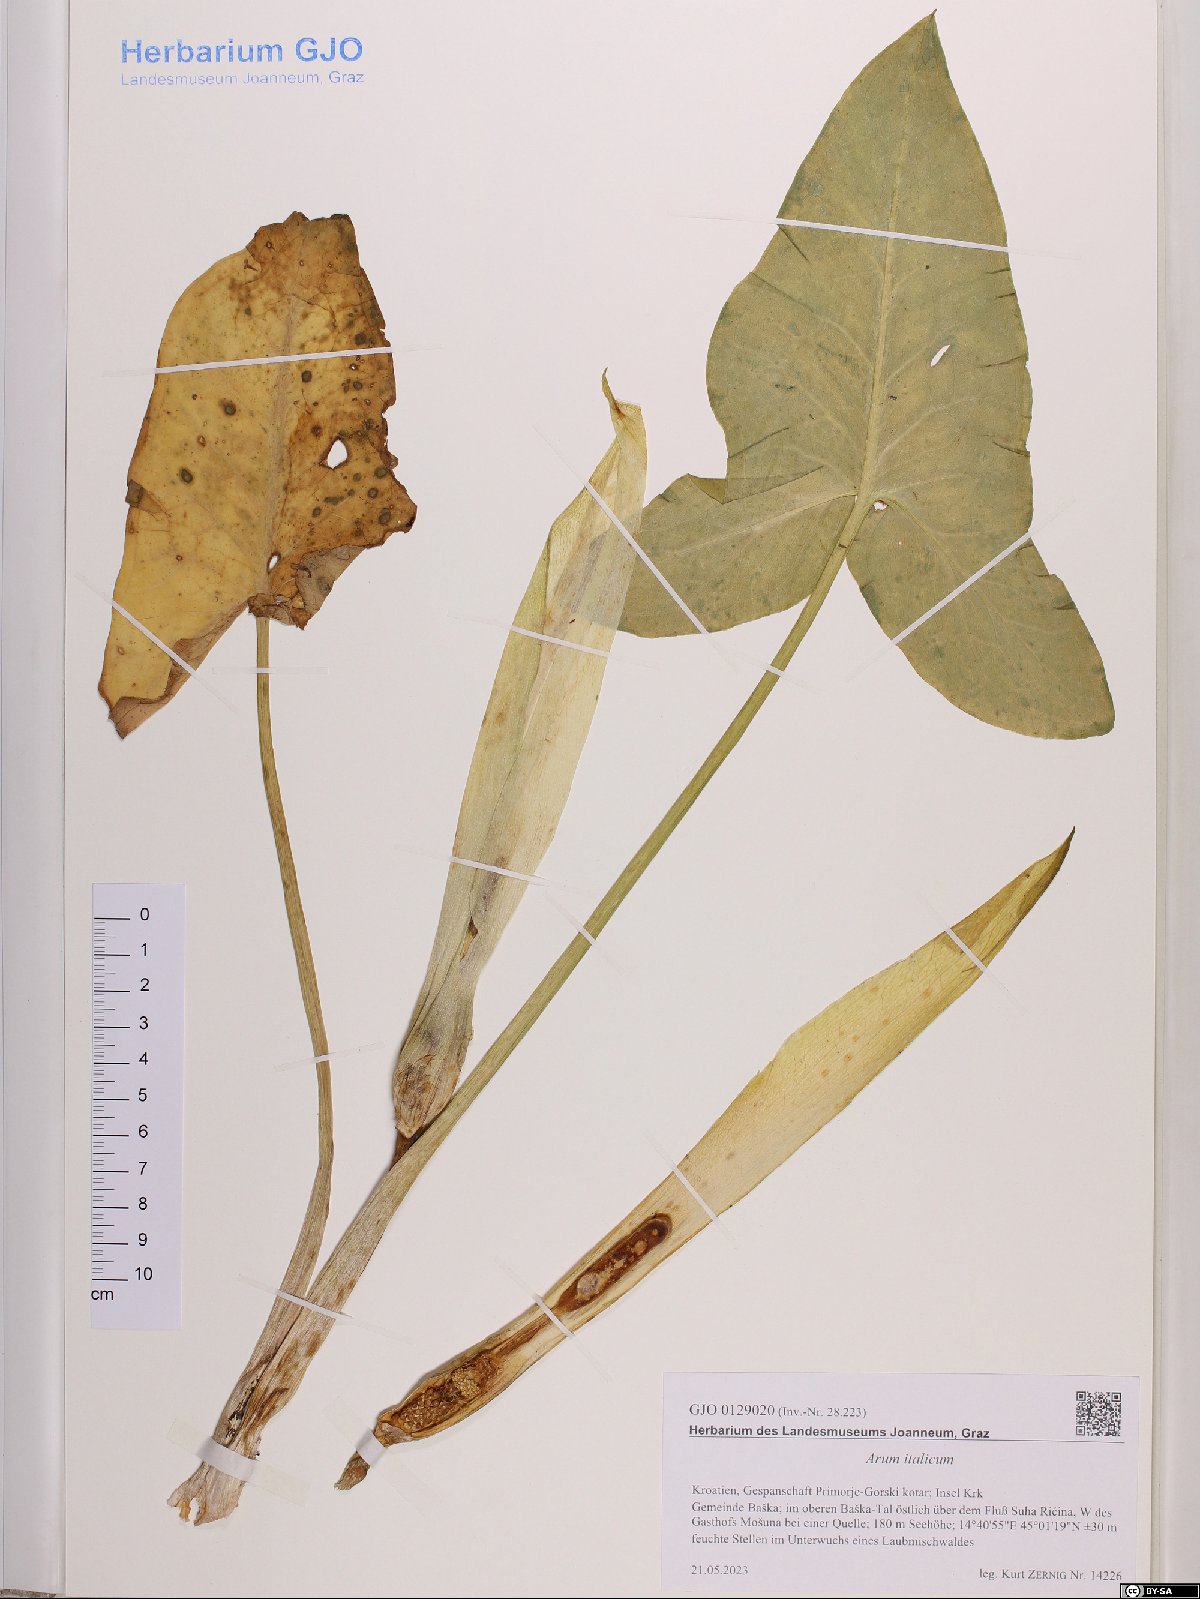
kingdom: Plantae
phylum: Tracheophyta
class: Liliopsida
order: Alismatales
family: Araceae
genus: Arum
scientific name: Arum italicum
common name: Italian lords-and-ladies
